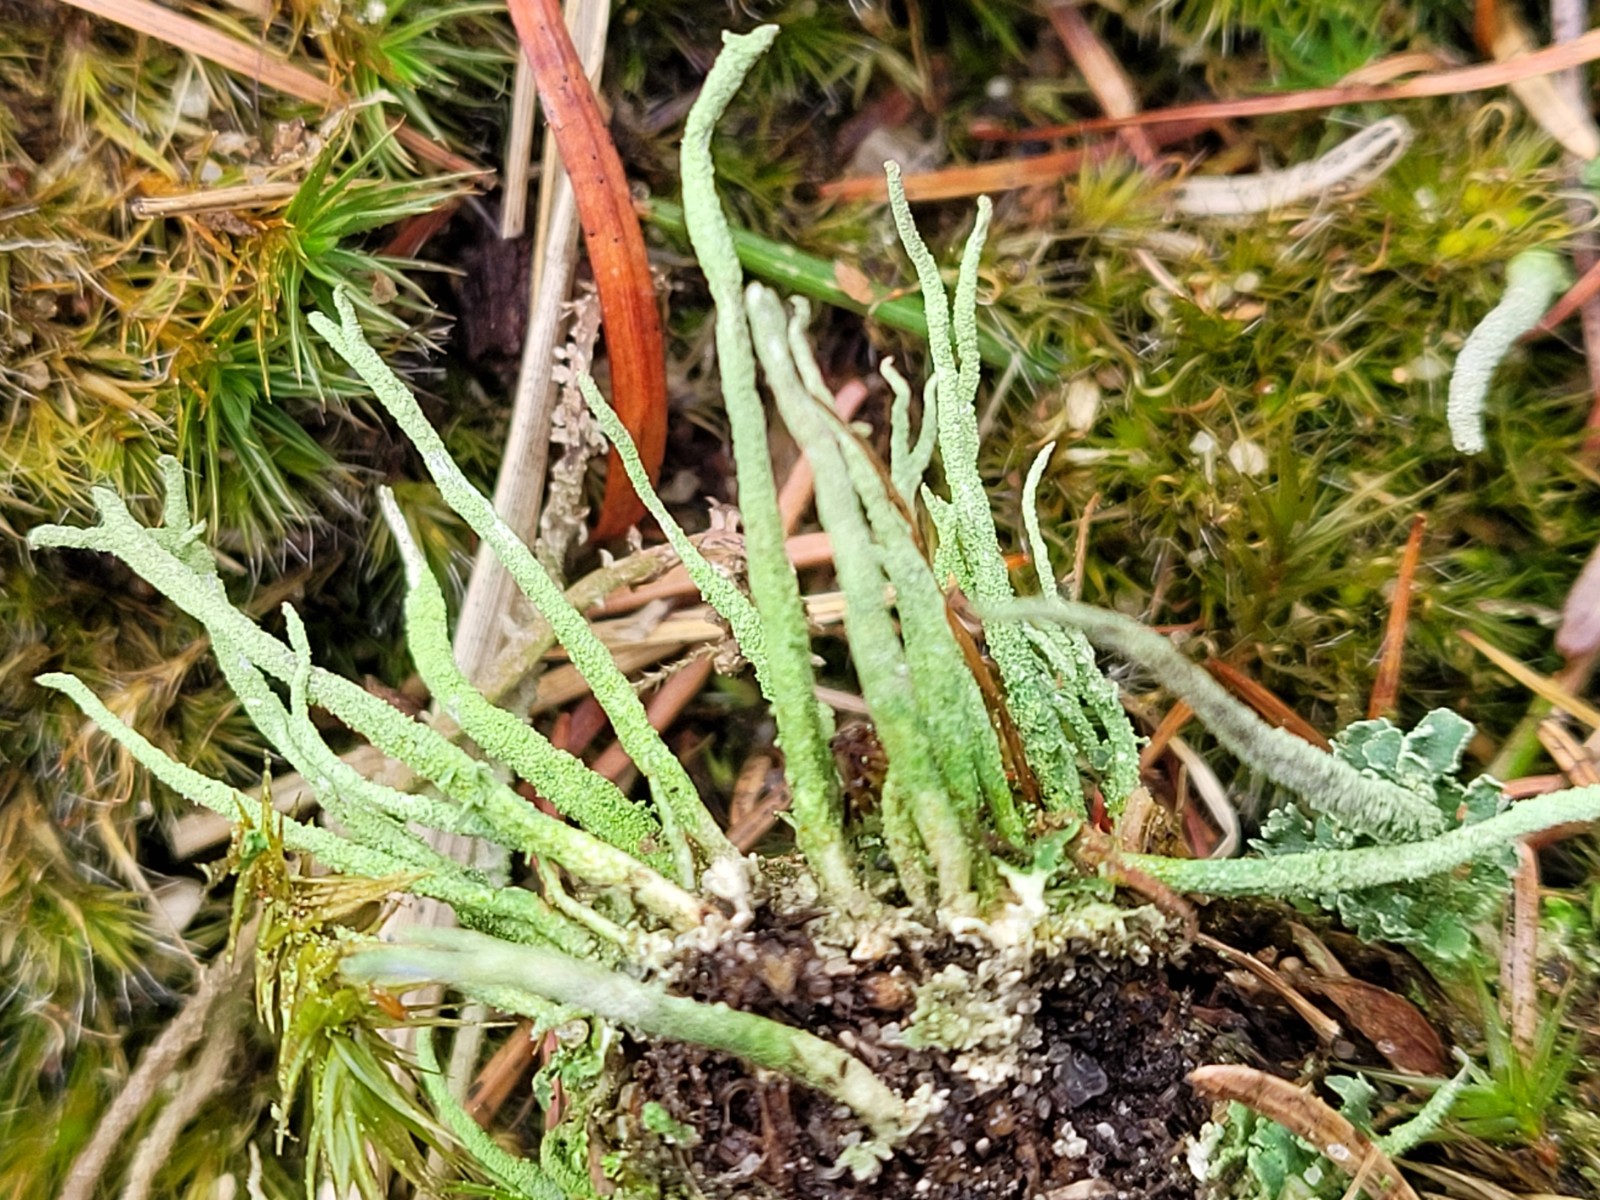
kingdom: Fungi
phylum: Ascomycota
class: Lecanoromycetes
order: Lecanorales
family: Cladoniaceae
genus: Cladonia
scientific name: Cladonia macilenta
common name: indsvunden bægerlav
